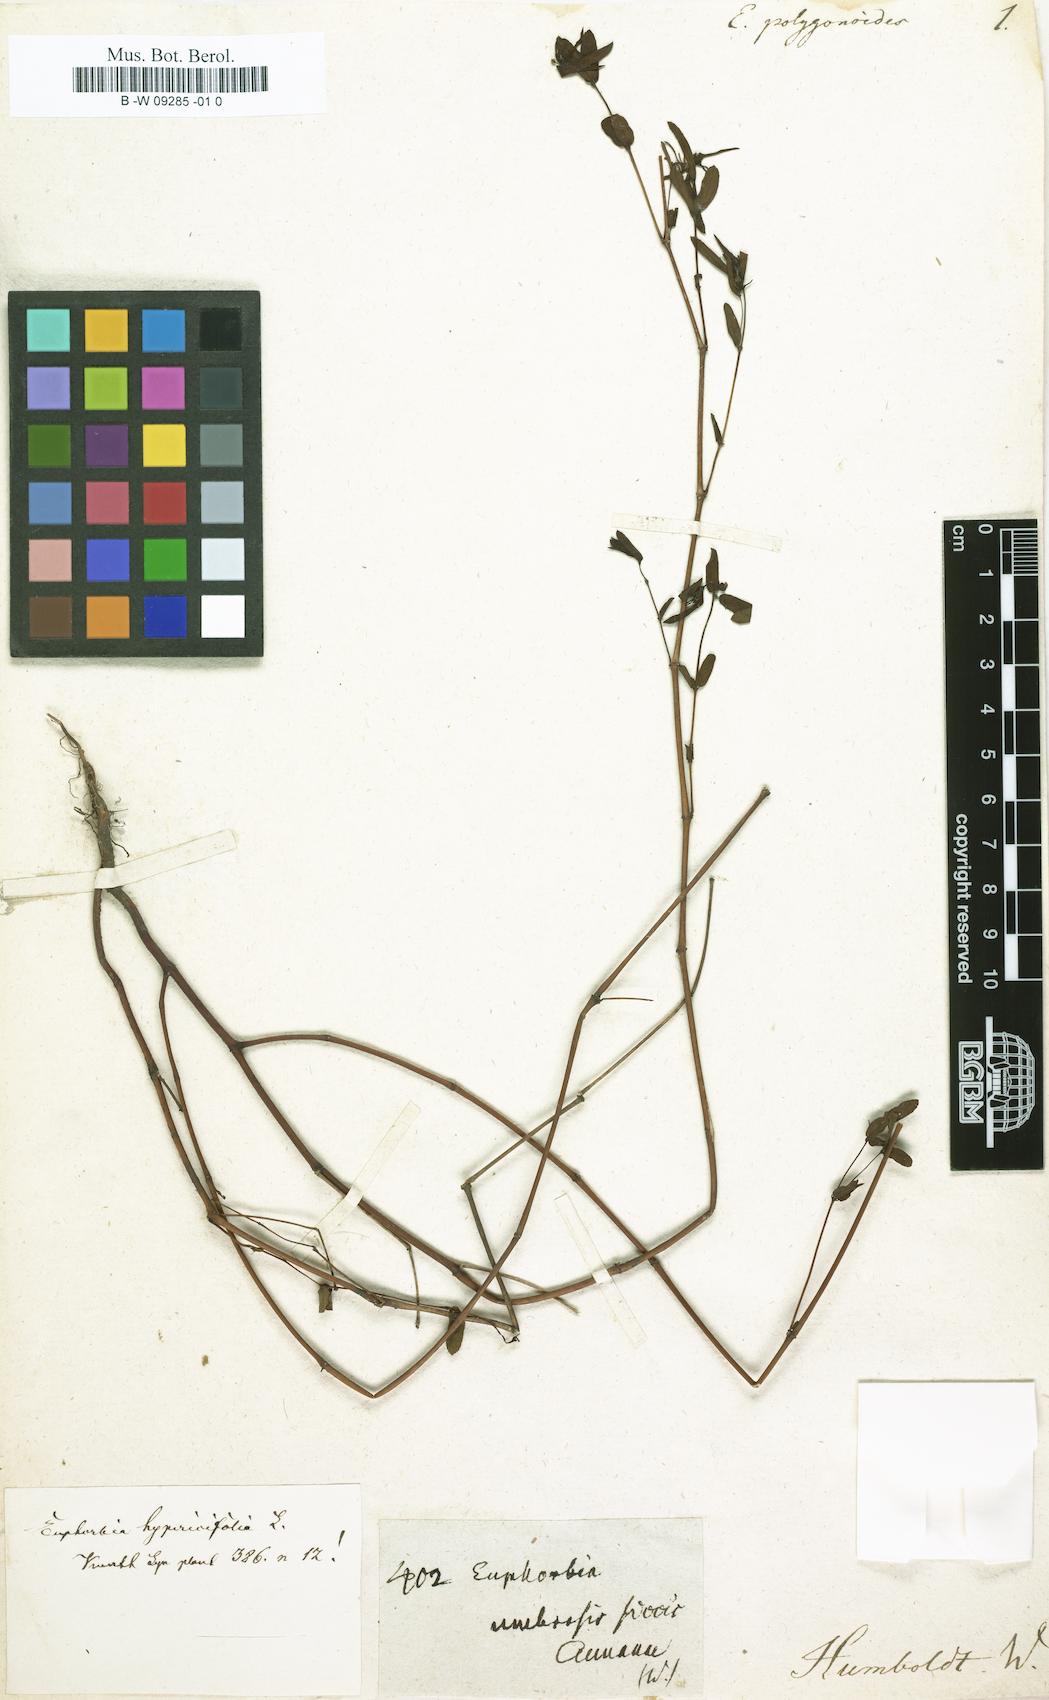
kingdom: Plantae
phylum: Tracheophyta
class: Magnoliopsida
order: Malpighiales
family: Euphorbiaceae
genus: Euphorbia
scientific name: Euphorbia
